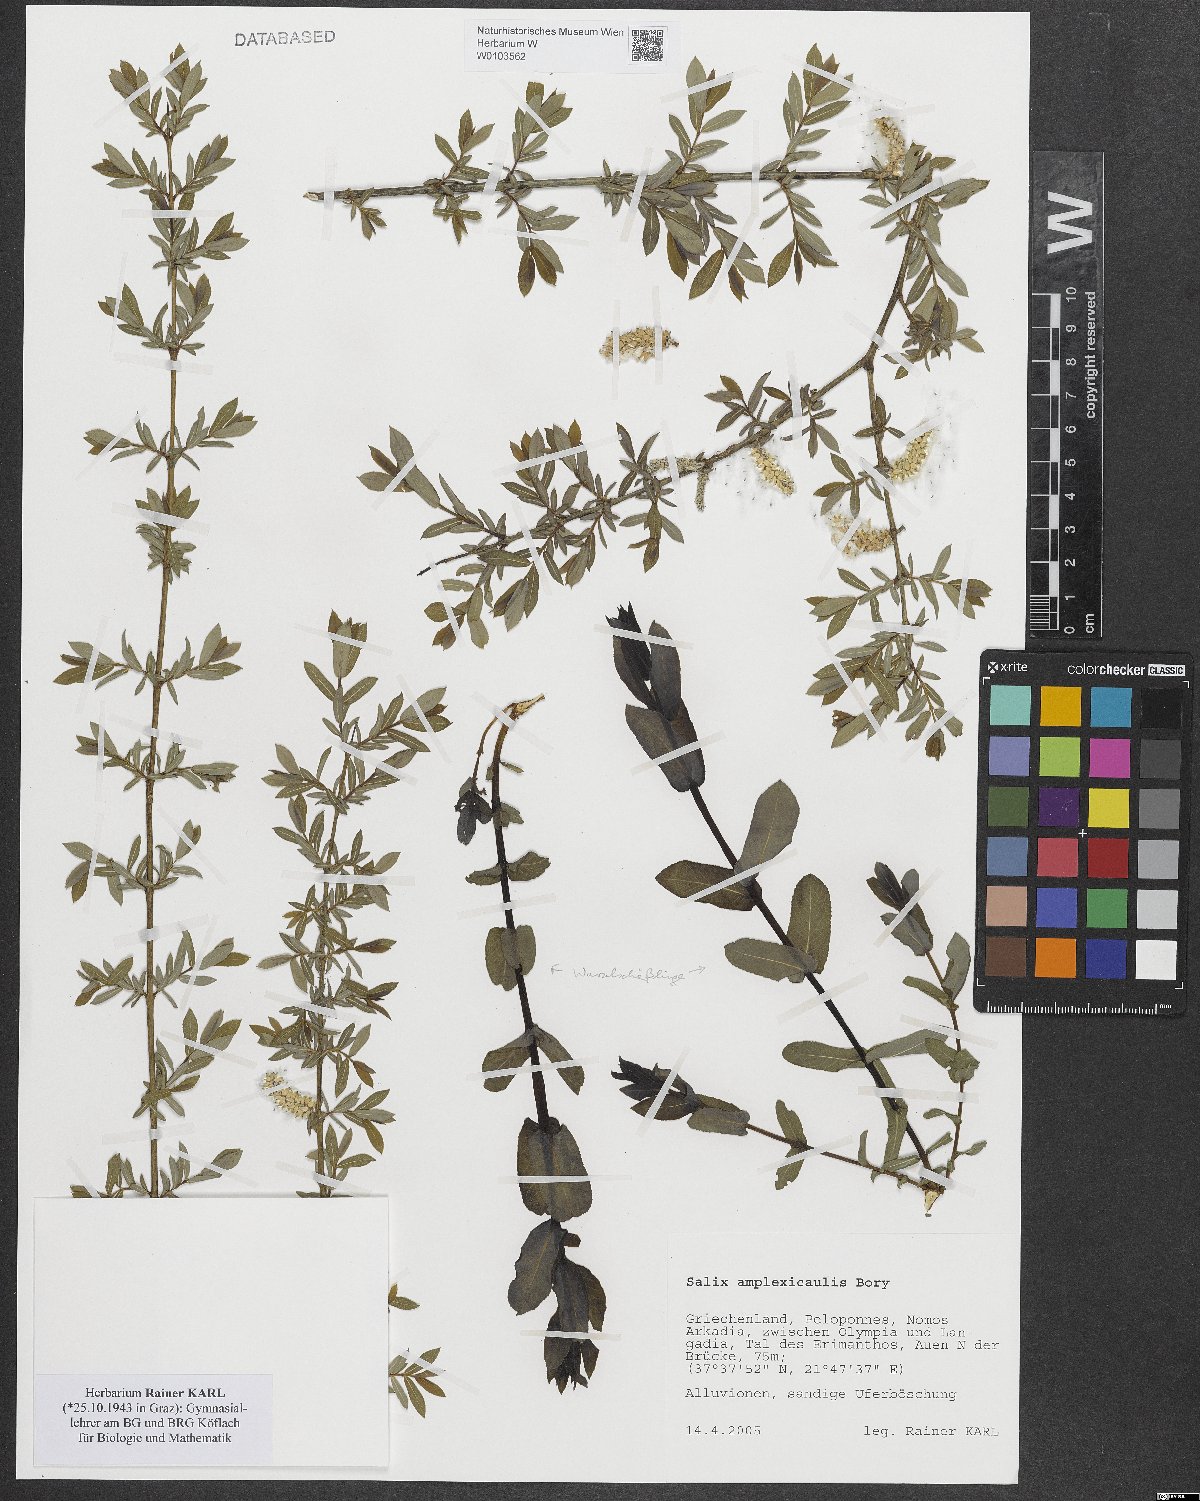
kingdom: Plantae
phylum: Tracheophyta
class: Magnoliopsida
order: Malpighiales
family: Salicaceae
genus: Salix
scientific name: Salix amplexicaulis
